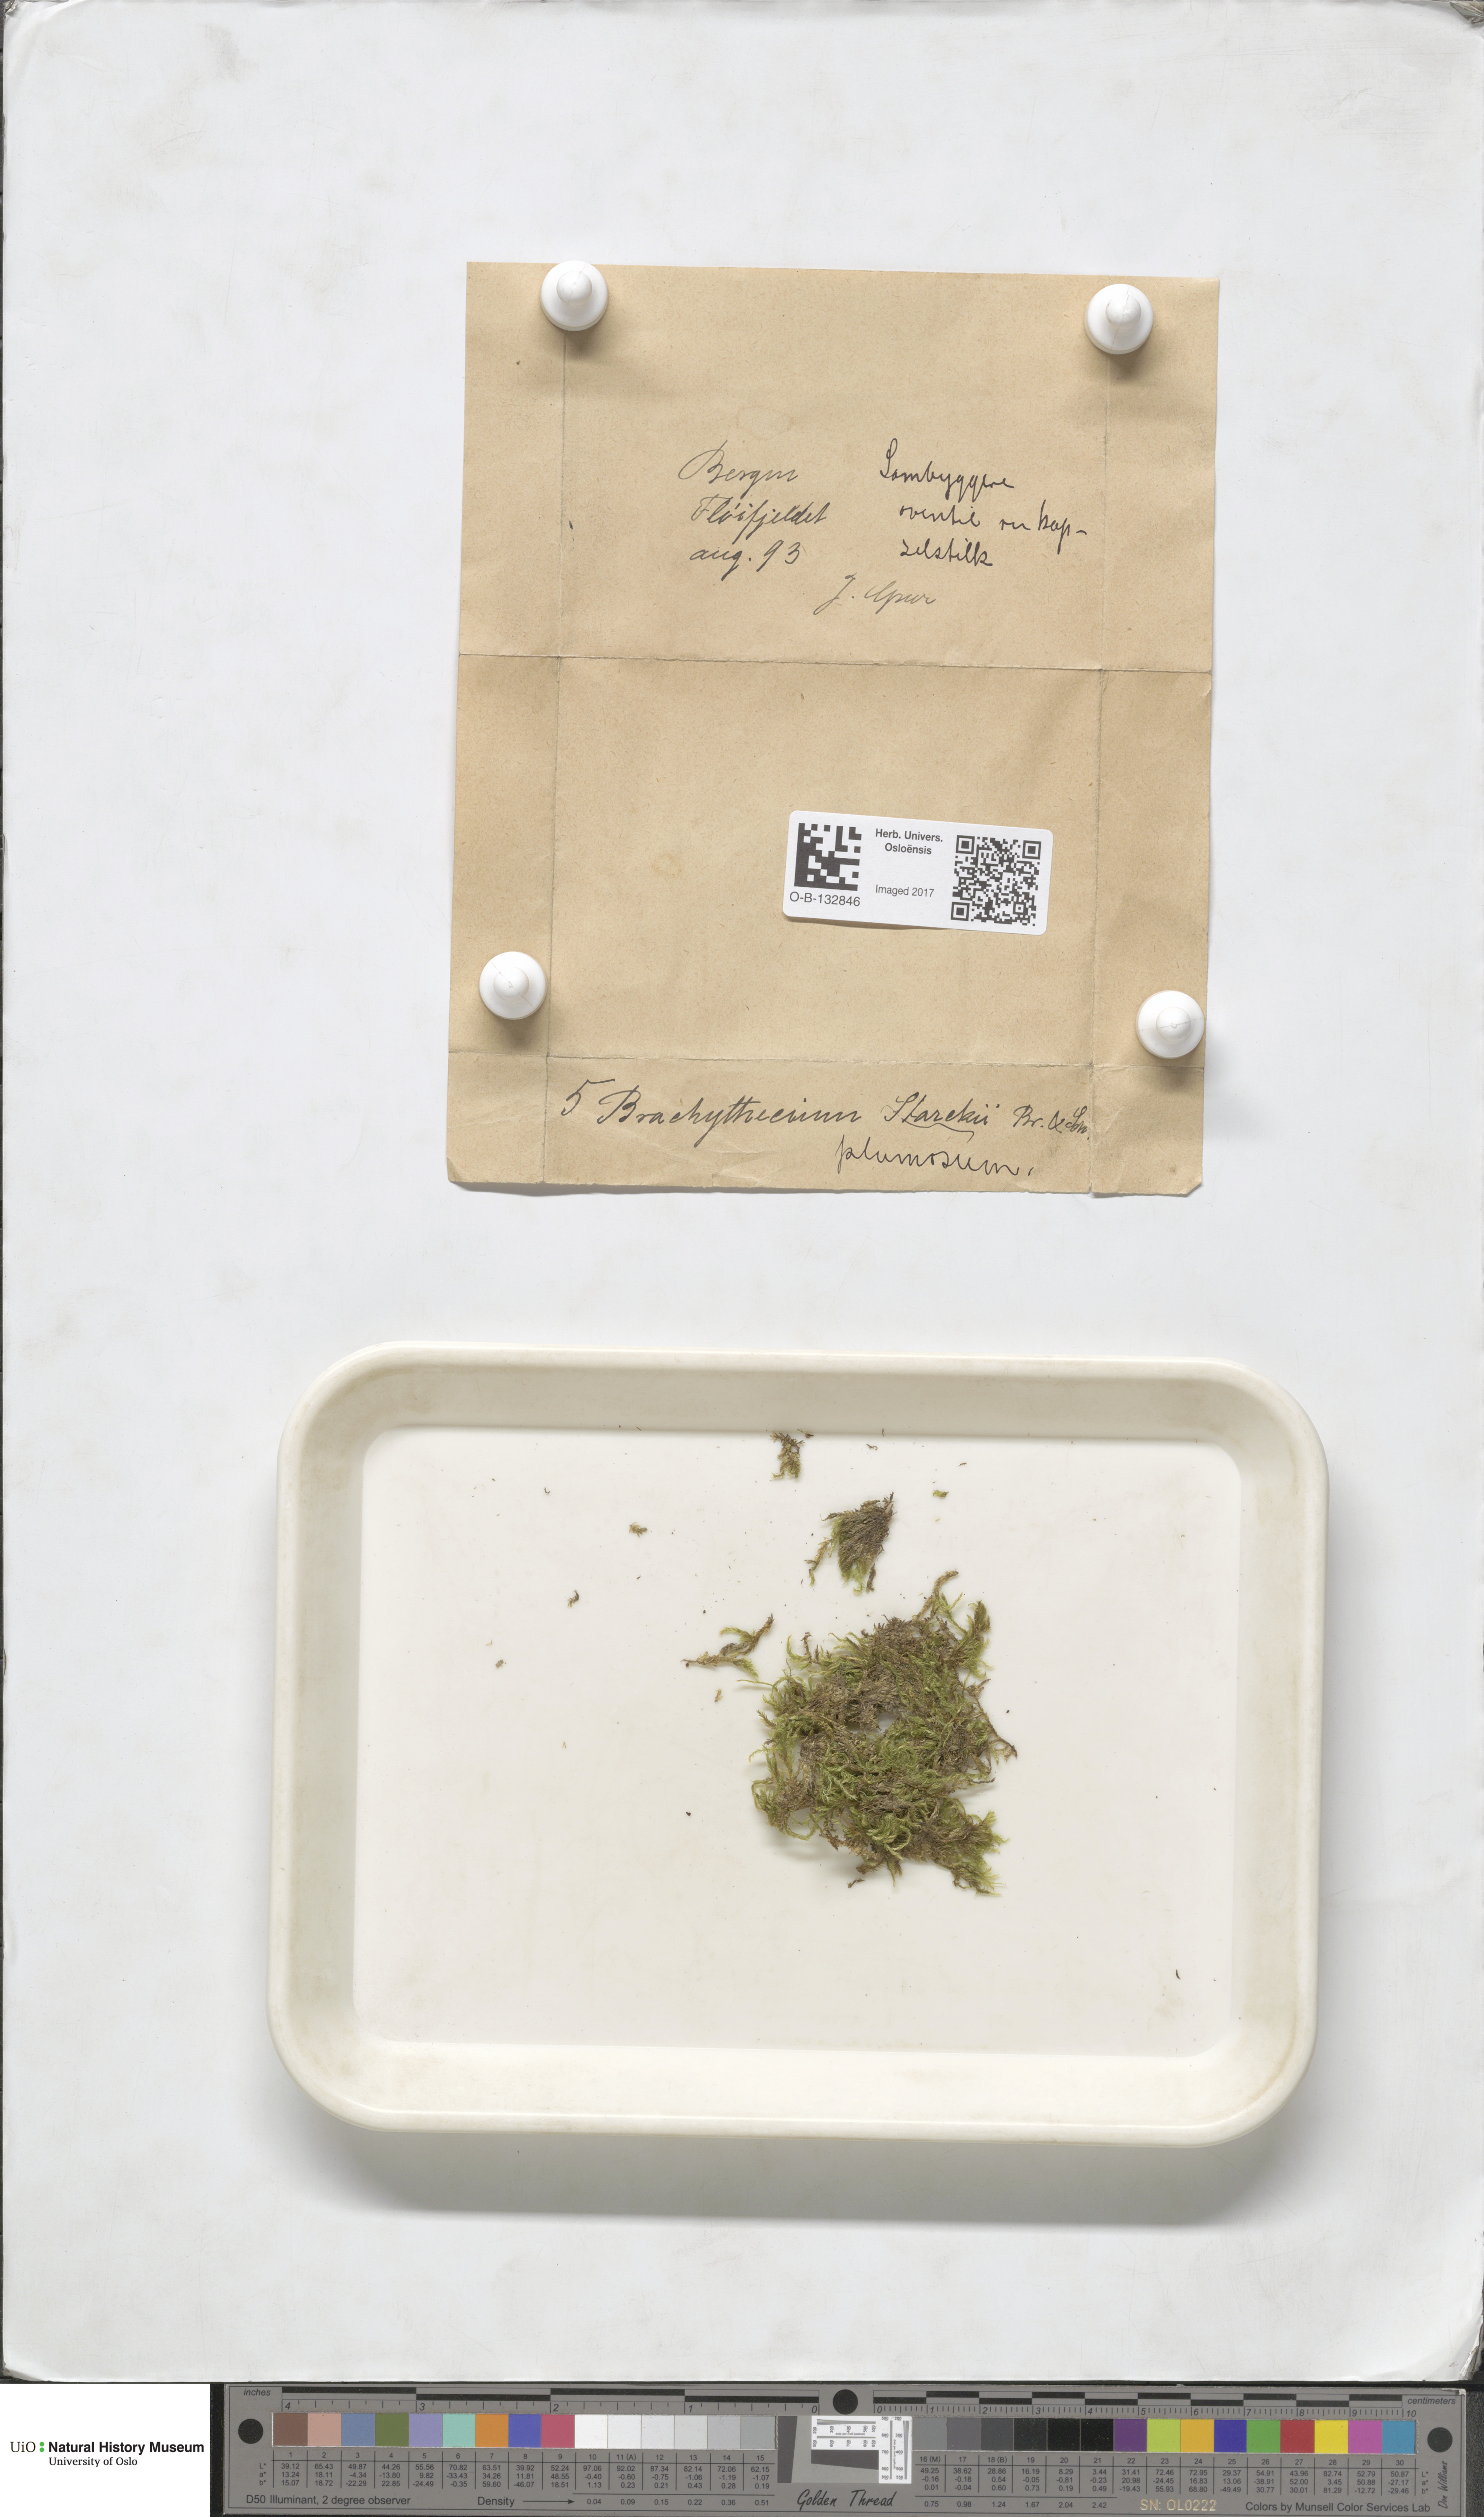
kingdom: Plantae
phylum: Bryophyta
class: Bryopsida
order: Hypnales
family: Brachytheciaceae
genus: Sciuro-hypnum
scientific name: Sciuro-hypnum plumosum
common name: Rusty feather-moss
